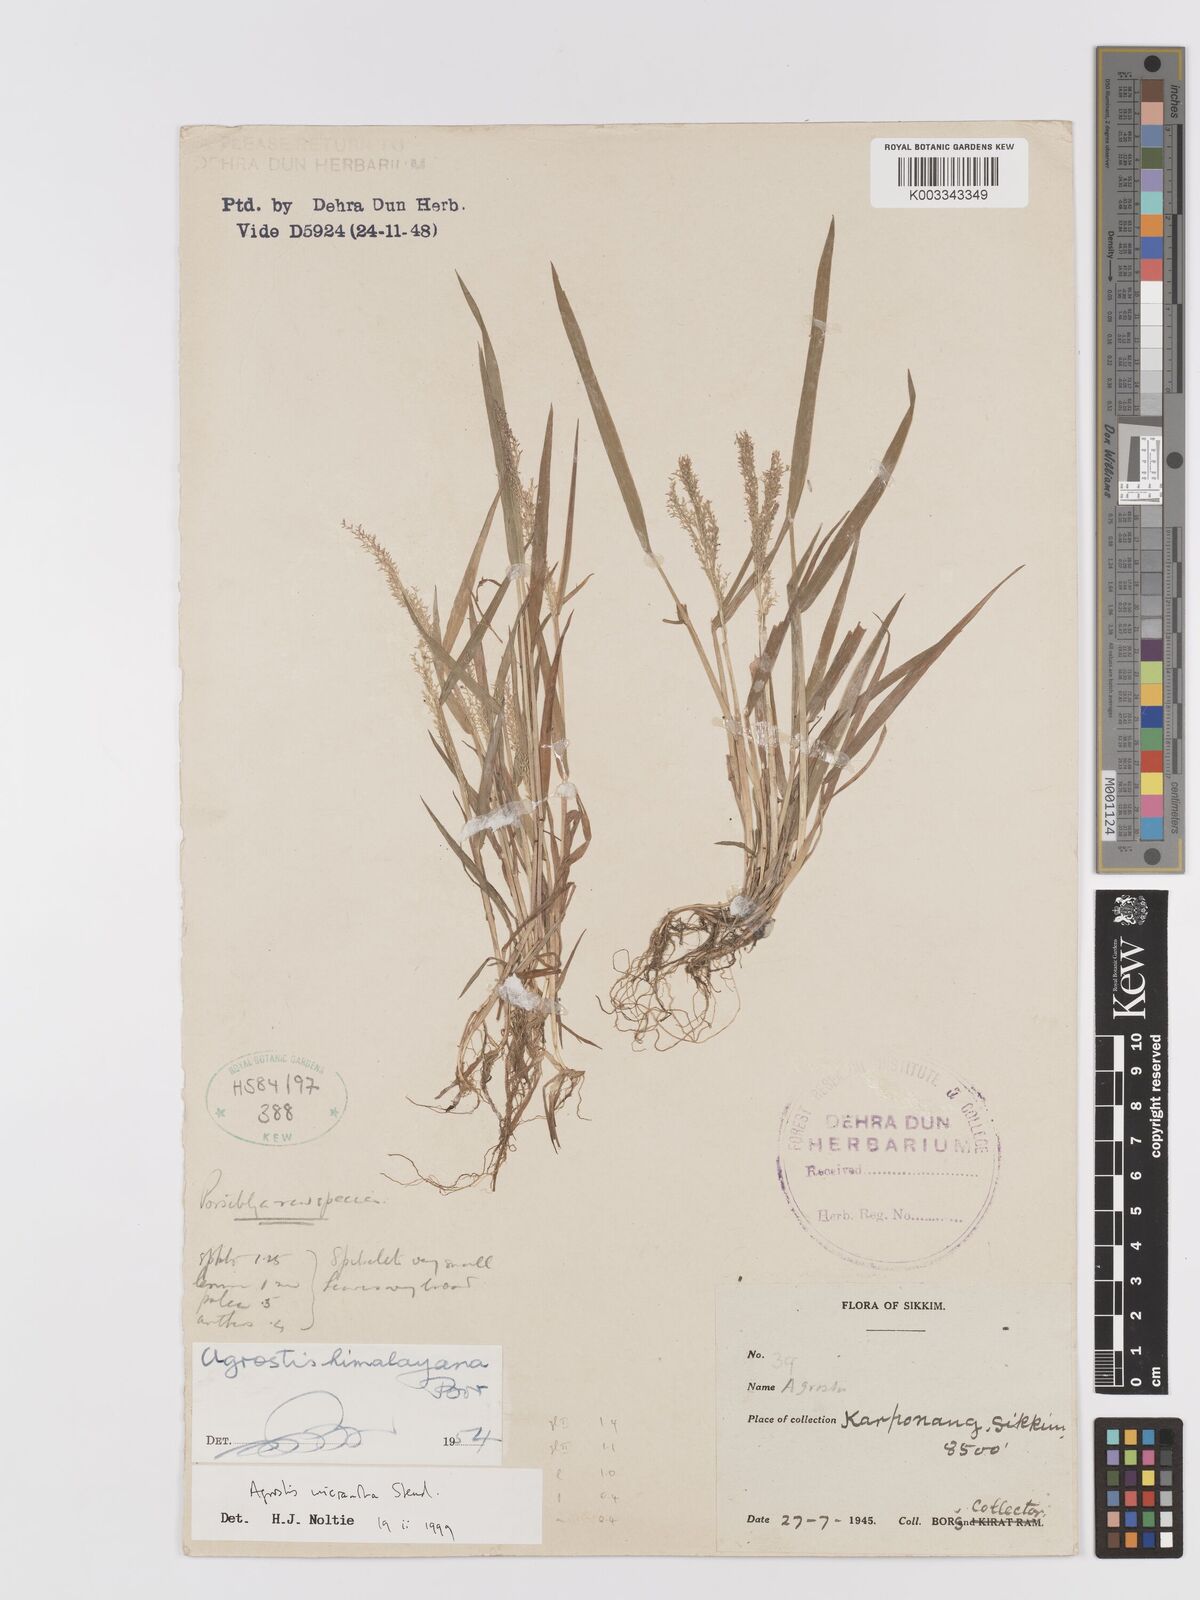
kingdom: Plantae
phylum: Tracheophyta
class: Liliopsida
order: Poales
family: Poaceae
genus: Agrostis
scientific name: Agrostis micrantha
